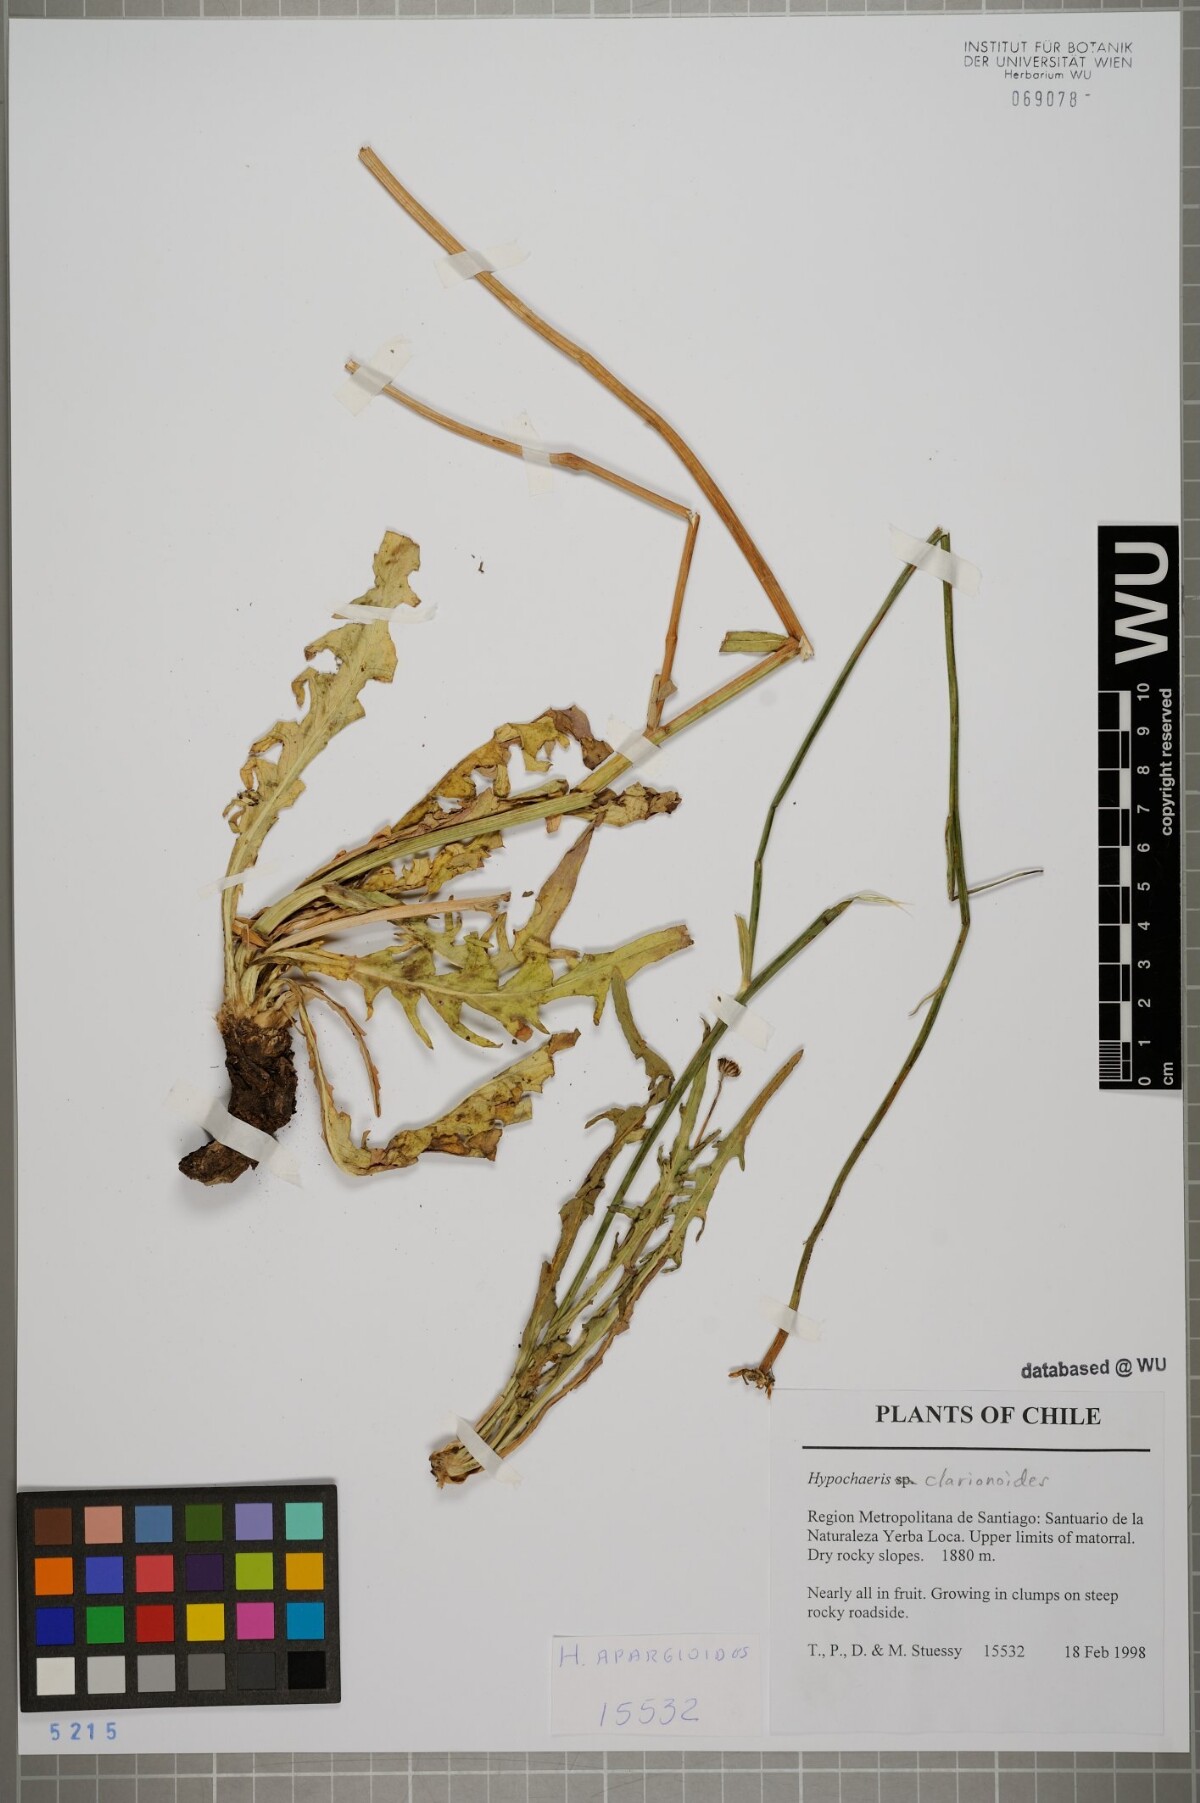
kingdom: Plantae
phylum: Tracheophyta
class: Magnoliopsida
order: Asterales
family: Asteraceae
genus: Hypochaeris
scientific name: Hypochaeris clarionoides
